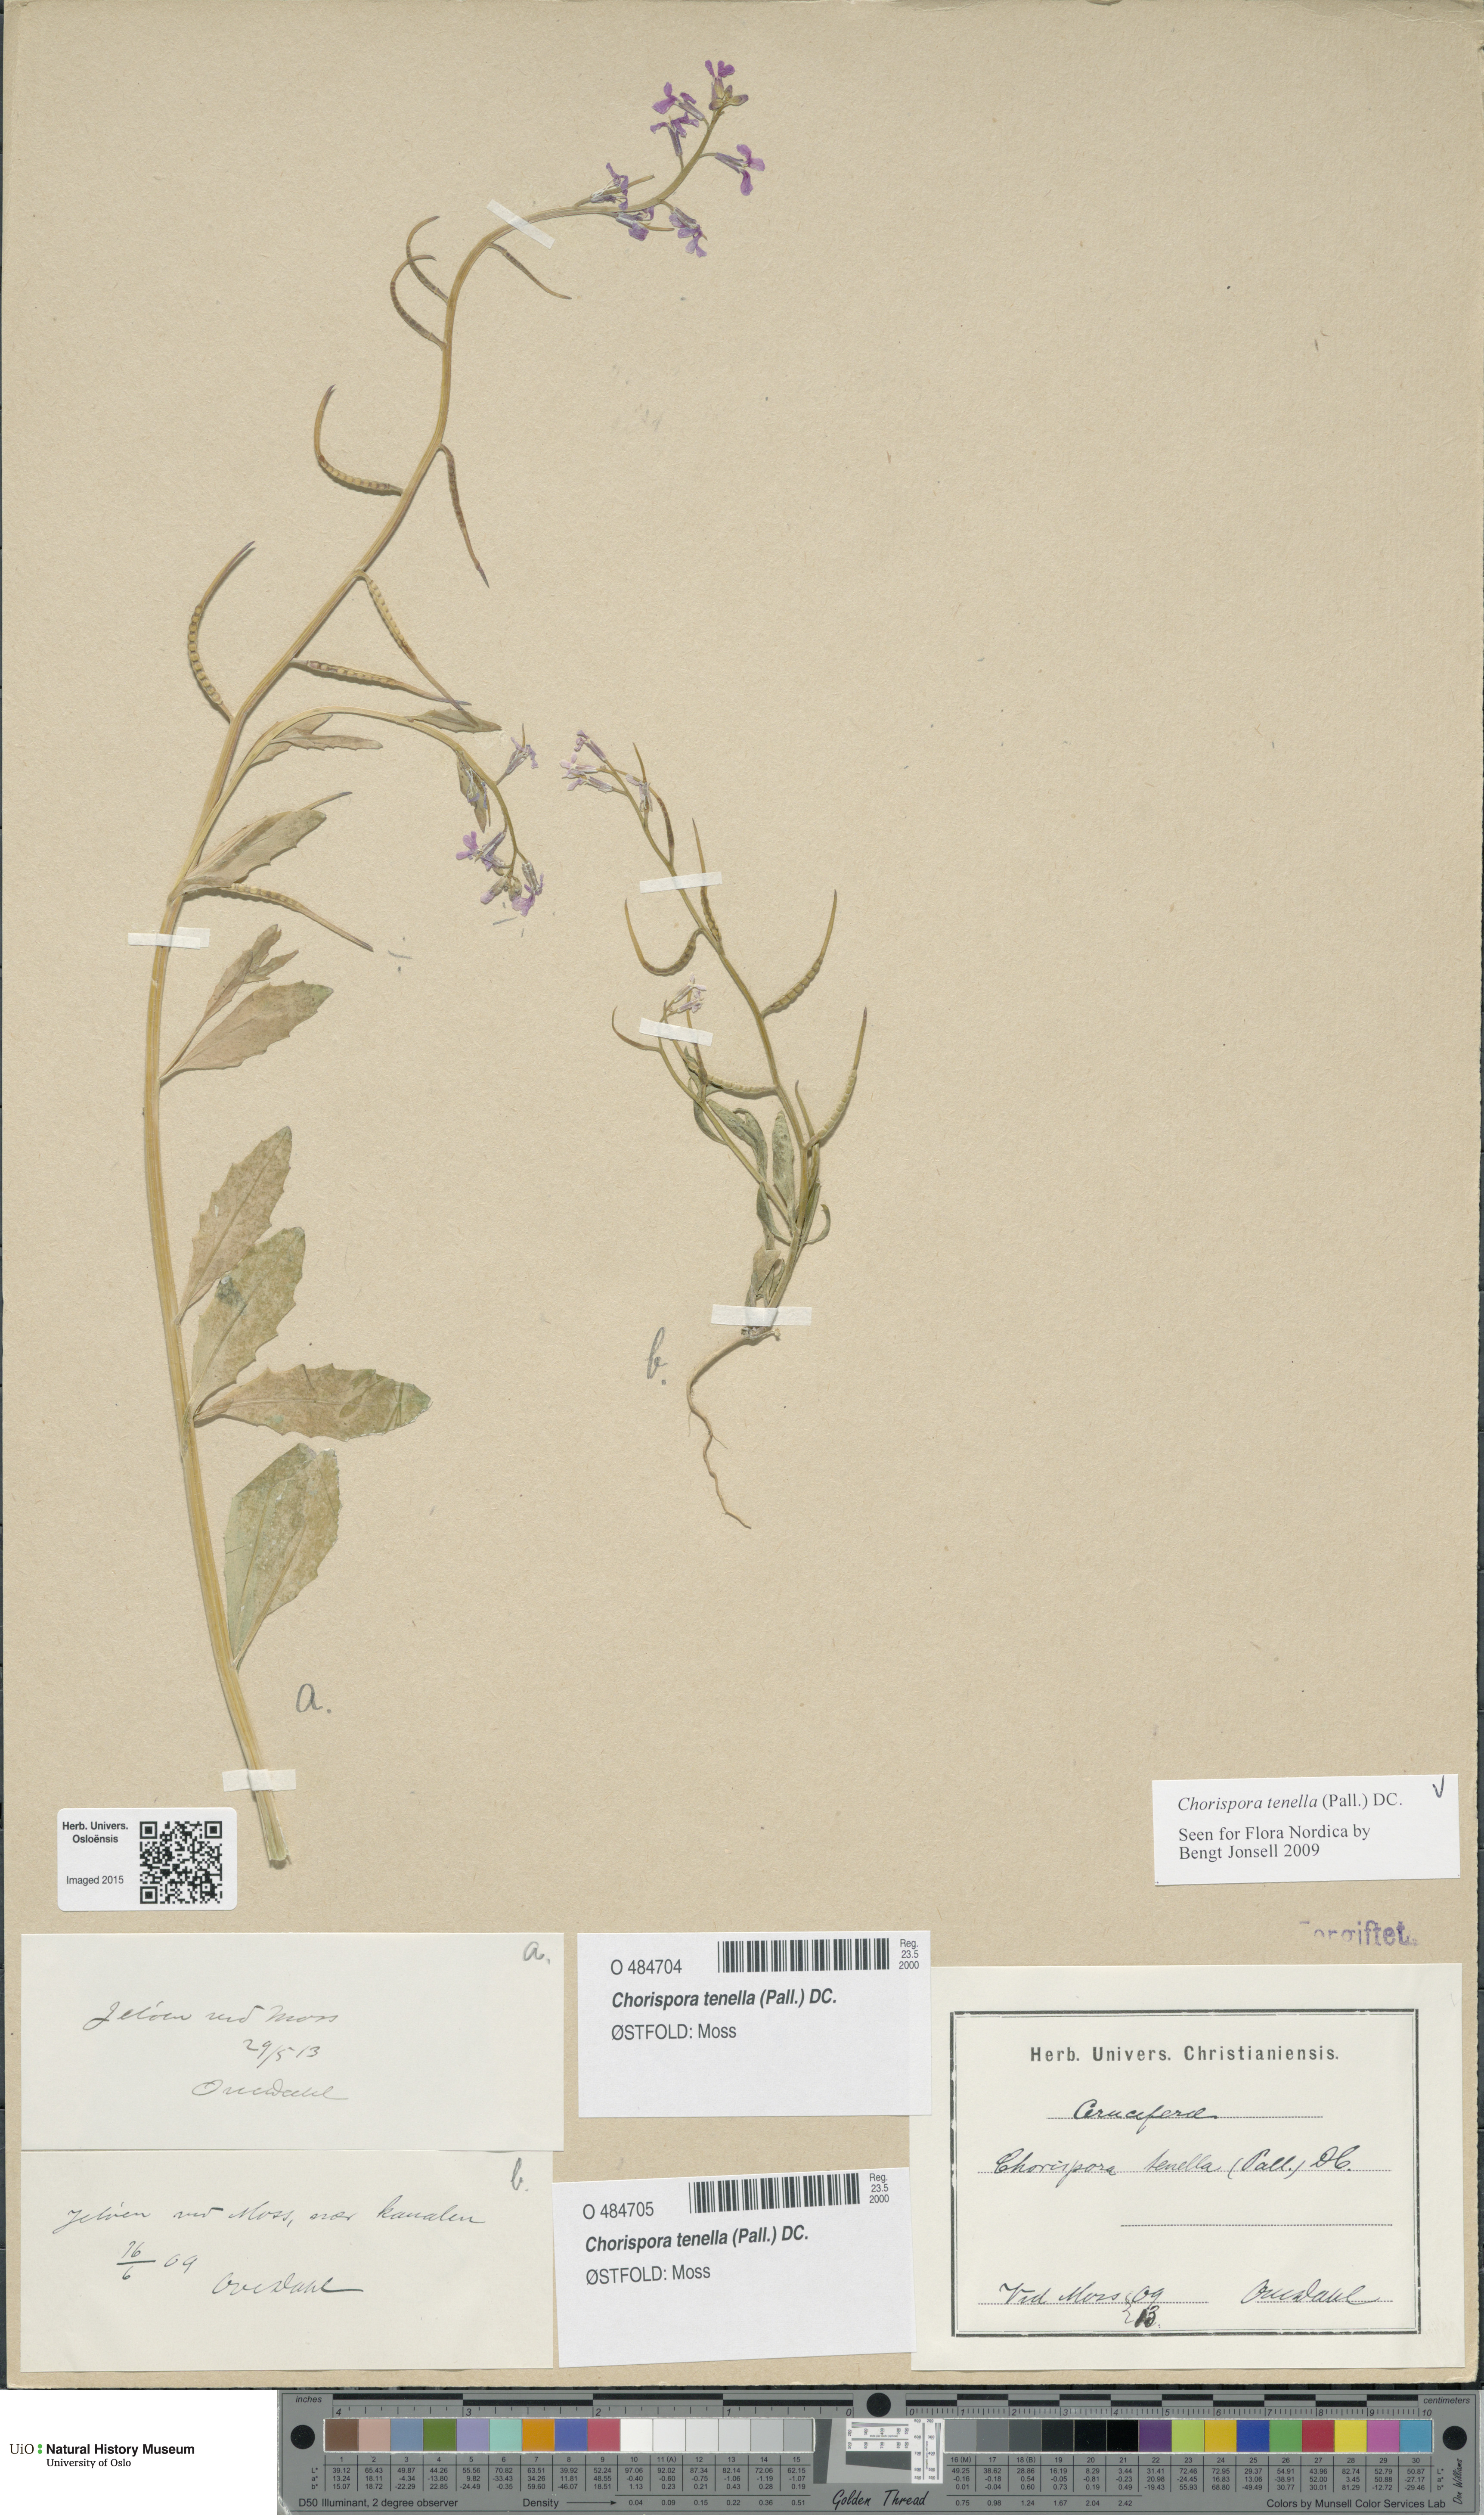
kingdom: Plantae
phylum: Tracheophyta
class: Magnoliopsida
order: Brassicales
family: Brassicaceae
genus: Chorispora
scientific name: Chorispora tenella
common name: Crossflower
